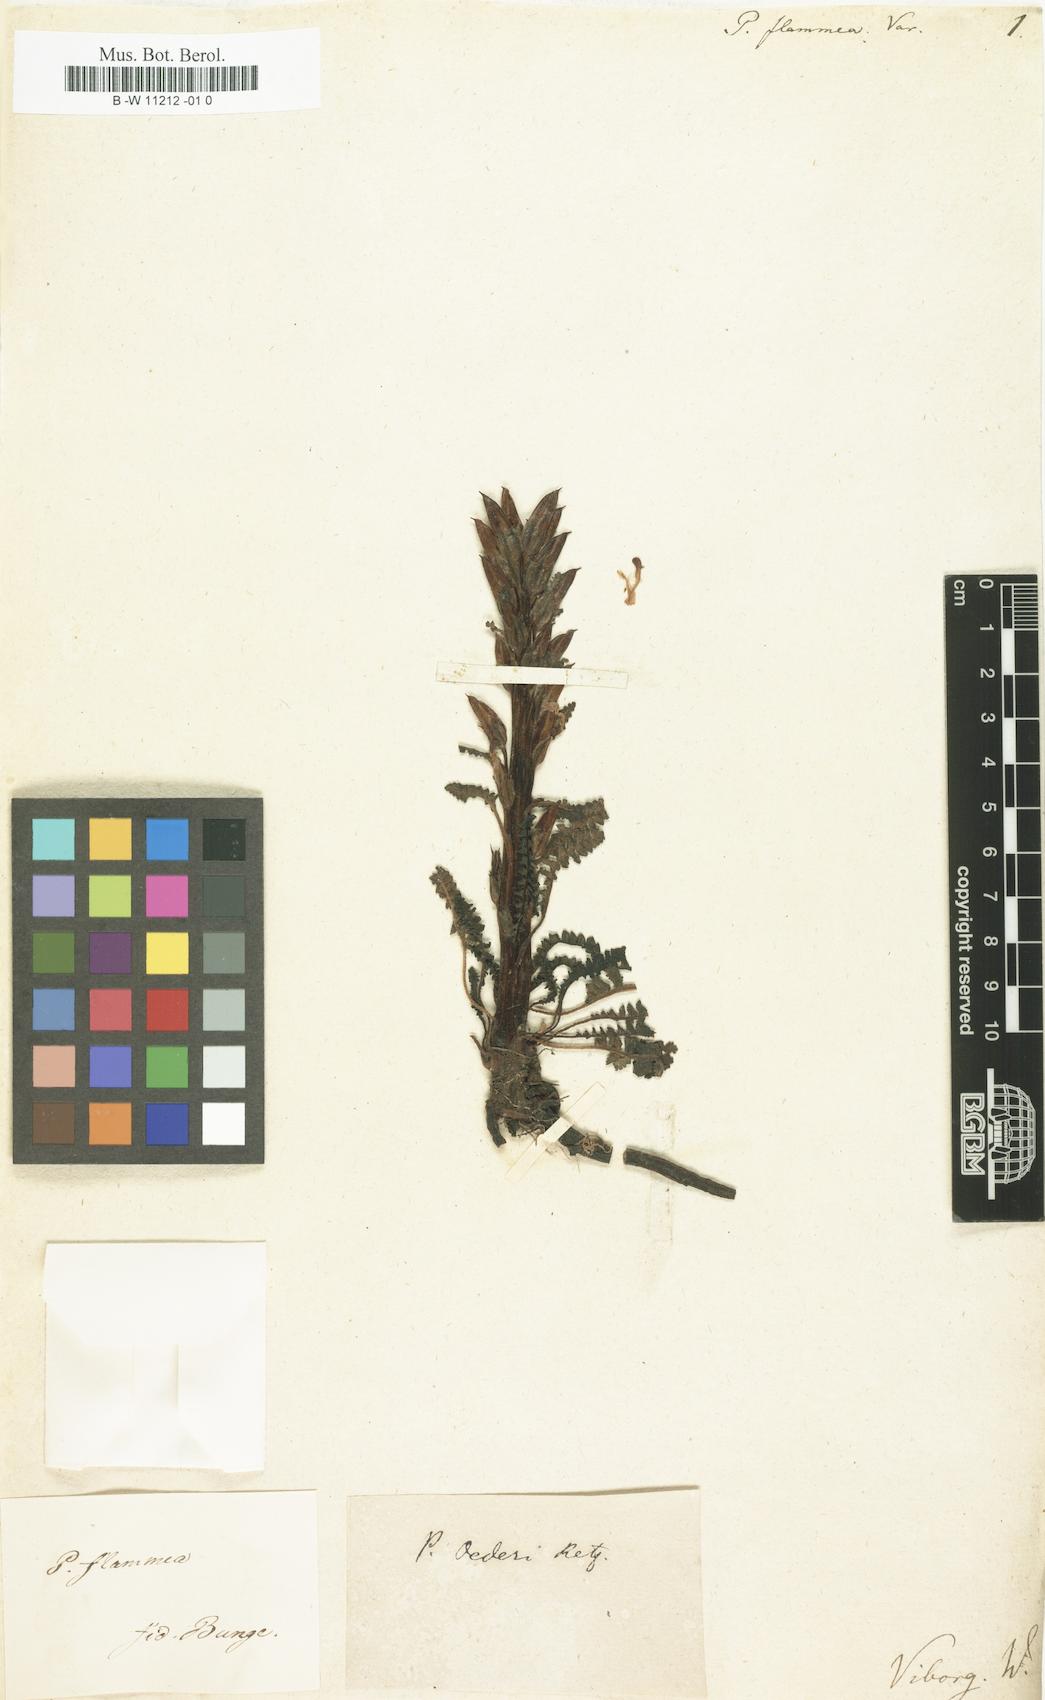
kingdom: Plantae
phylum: Tracheophyta
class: Magnoliopsida
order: Lamiales
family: Orobanchaceae
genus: Pedicularis
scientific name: Pedicularis flammea
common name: Flame-coloured lousewort
